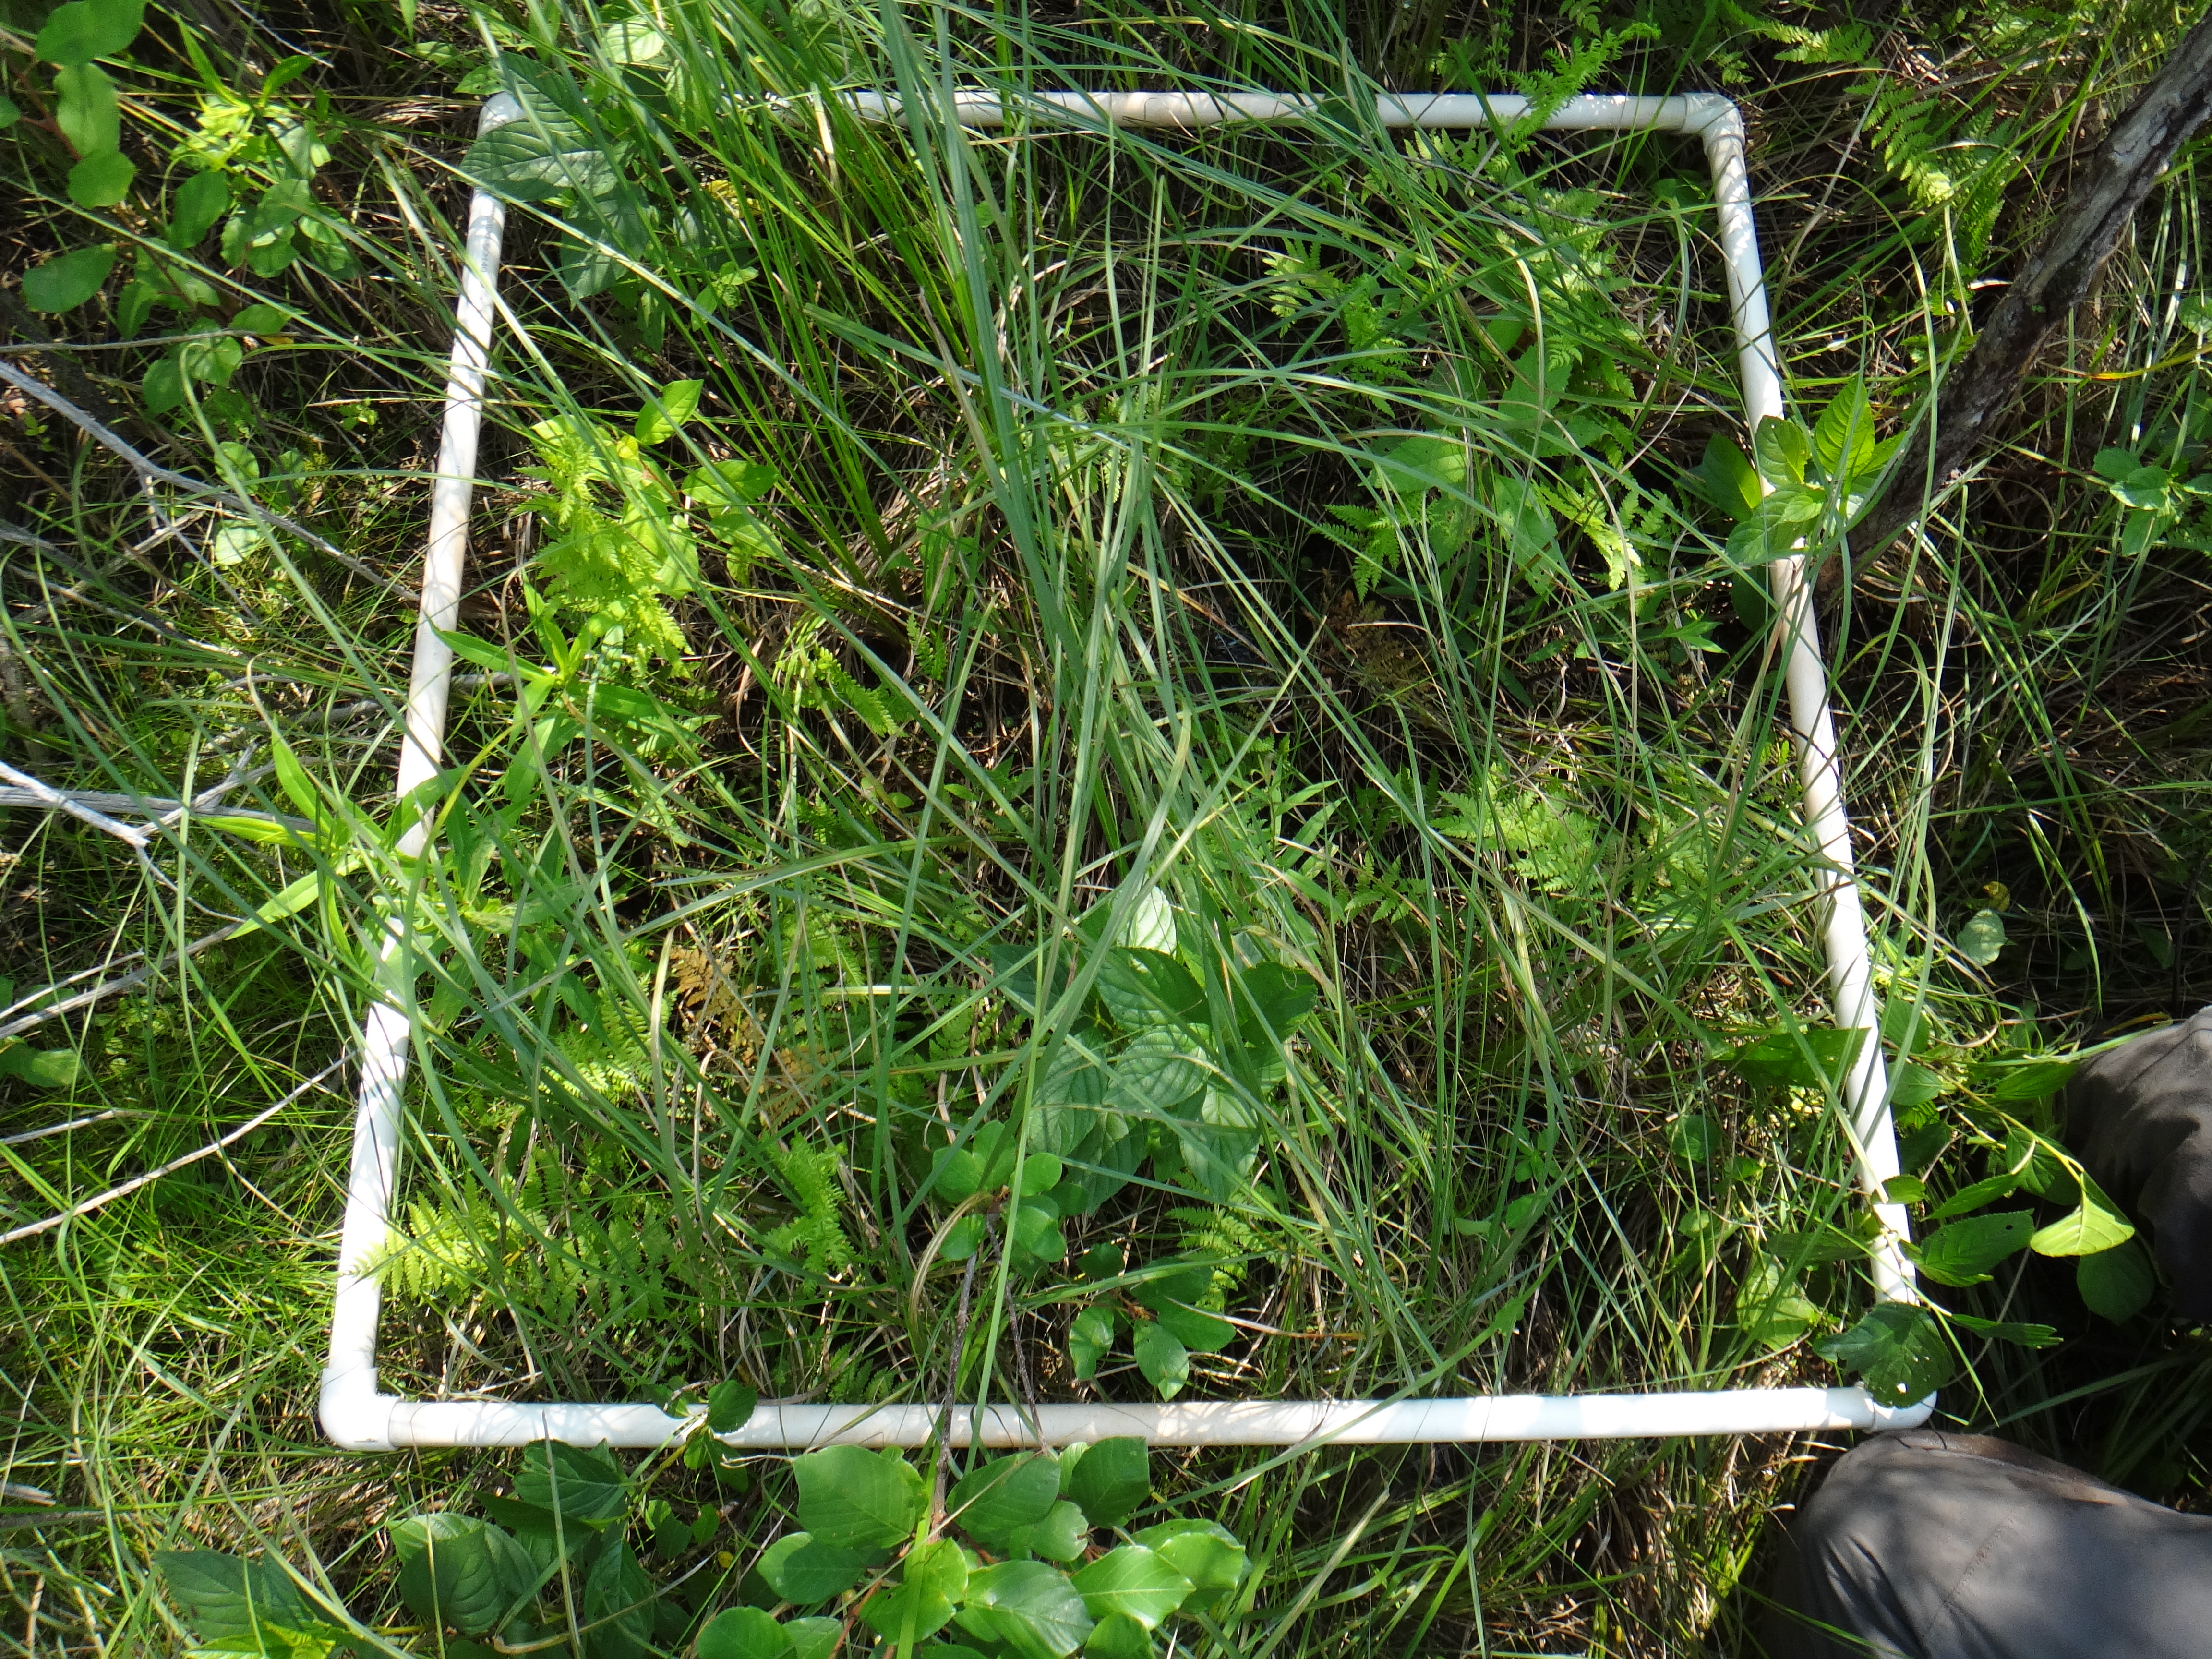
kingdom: Plantae
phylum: Tracheophyta
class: Liliopsida
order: Poales
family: Poaceae
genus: Glyceria
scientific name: Glyceria striata
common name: Fowl manna grass
